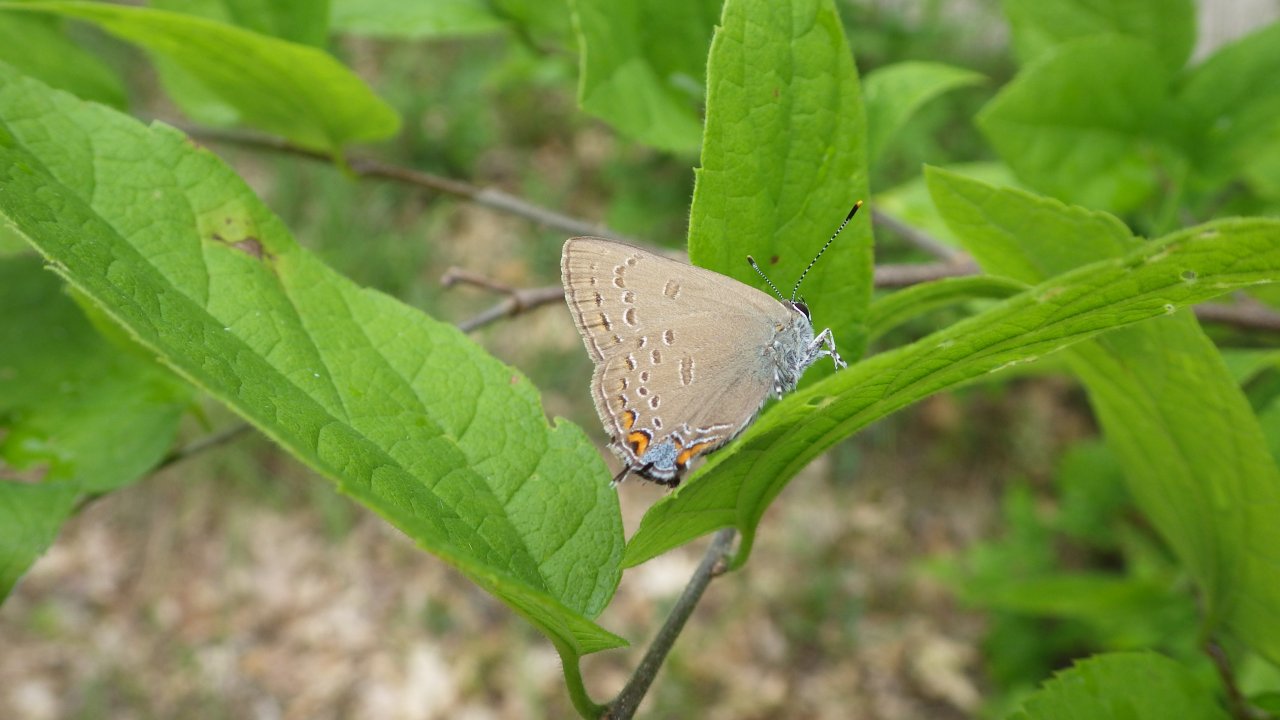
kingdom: Animalia
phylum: Arthropoda
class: Insecta
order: Lepidoptera
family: Lycaenidae
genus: Satyrium
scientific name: Satyrium edwardsii
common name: Edwards' Hairstreak
